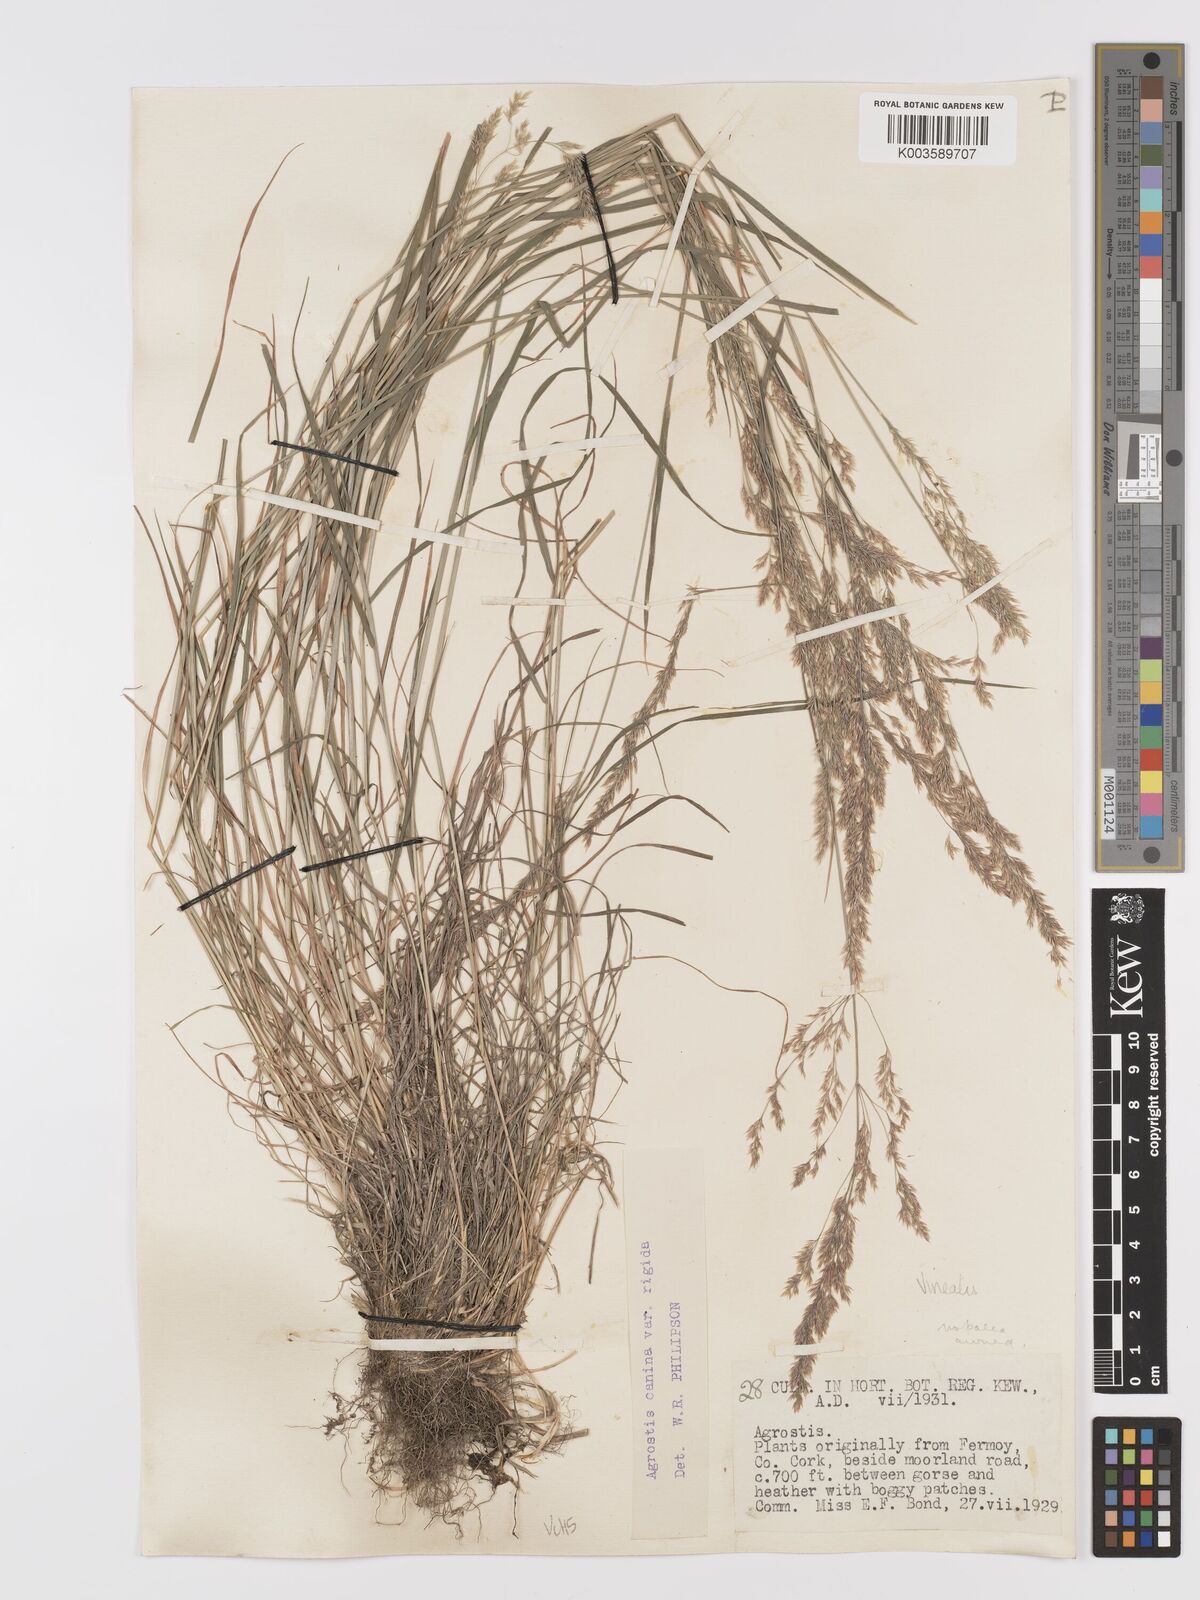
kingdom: Plantae
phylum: Tracheophyta
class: Liliopsida
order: Poales
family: Poaceae
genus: Agrostis
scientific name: Agrostis
